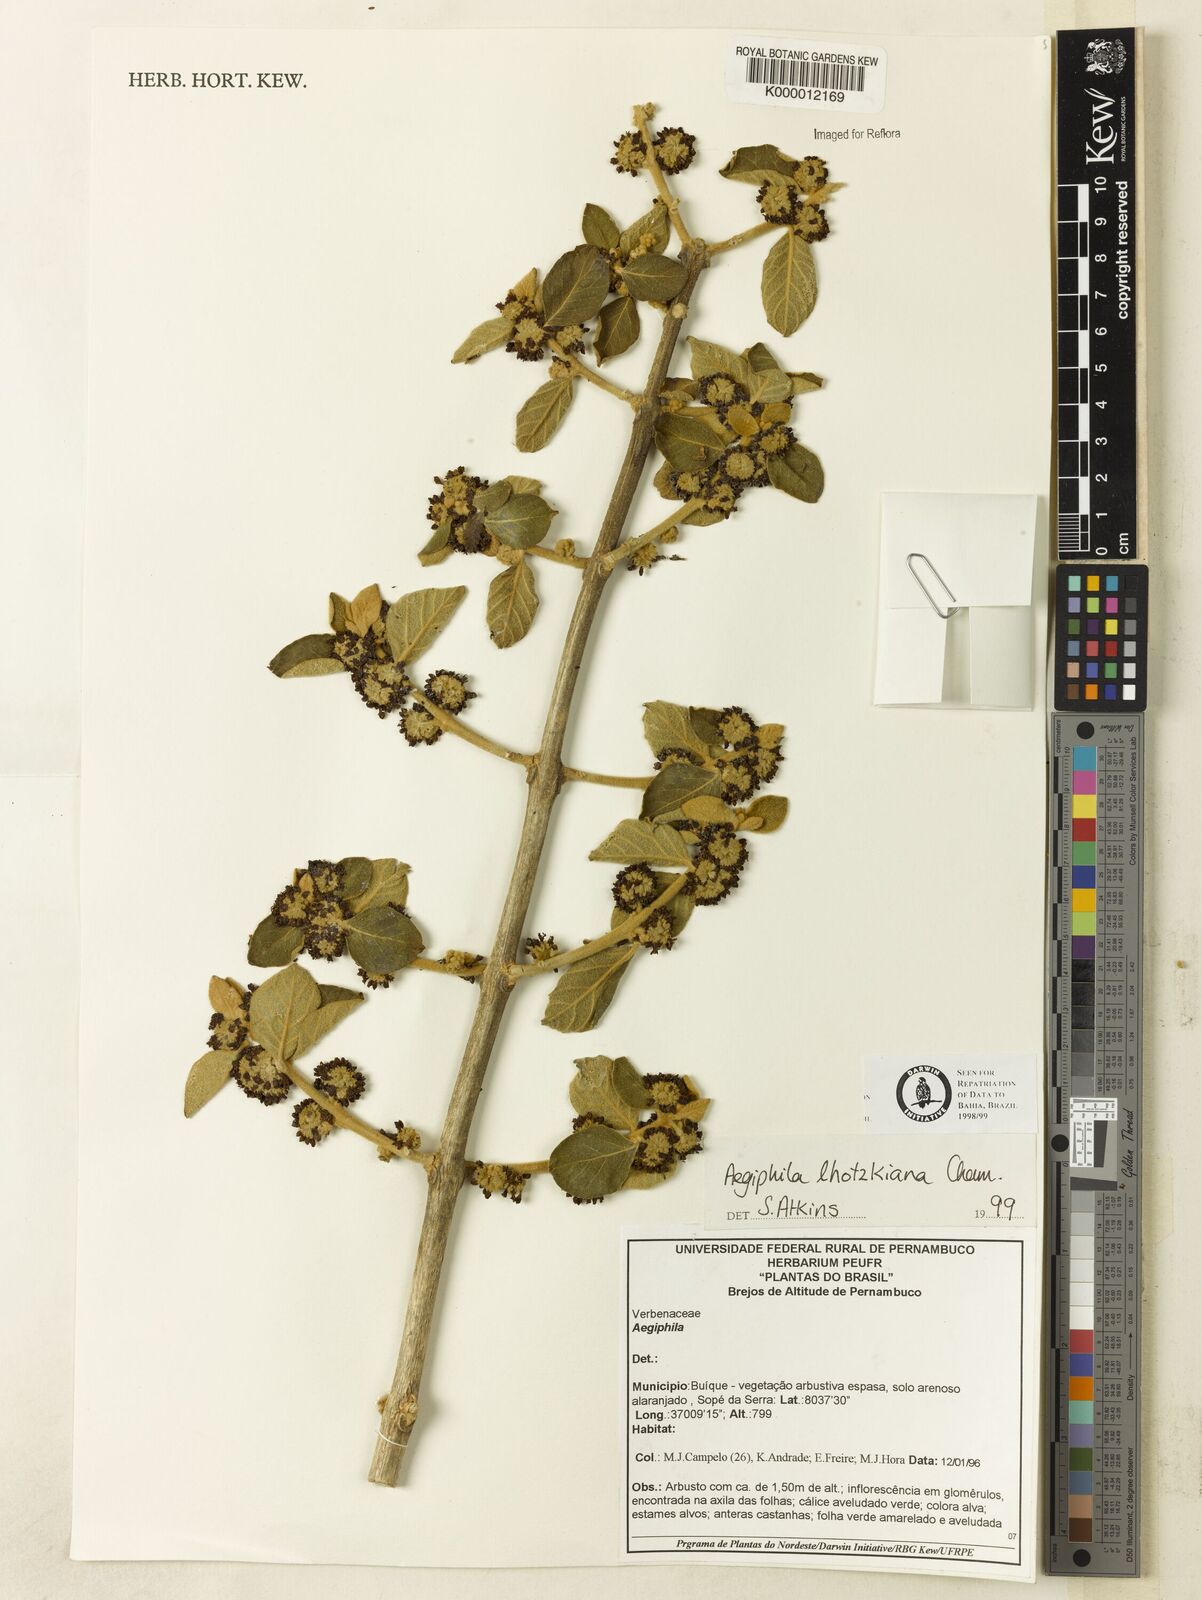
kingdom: Plantae
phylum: Tracheophyta
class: Magnoliopsida
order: Lamiales
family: Lamiaceae
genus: Aegiphila
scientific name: Aegiphila verticillata
